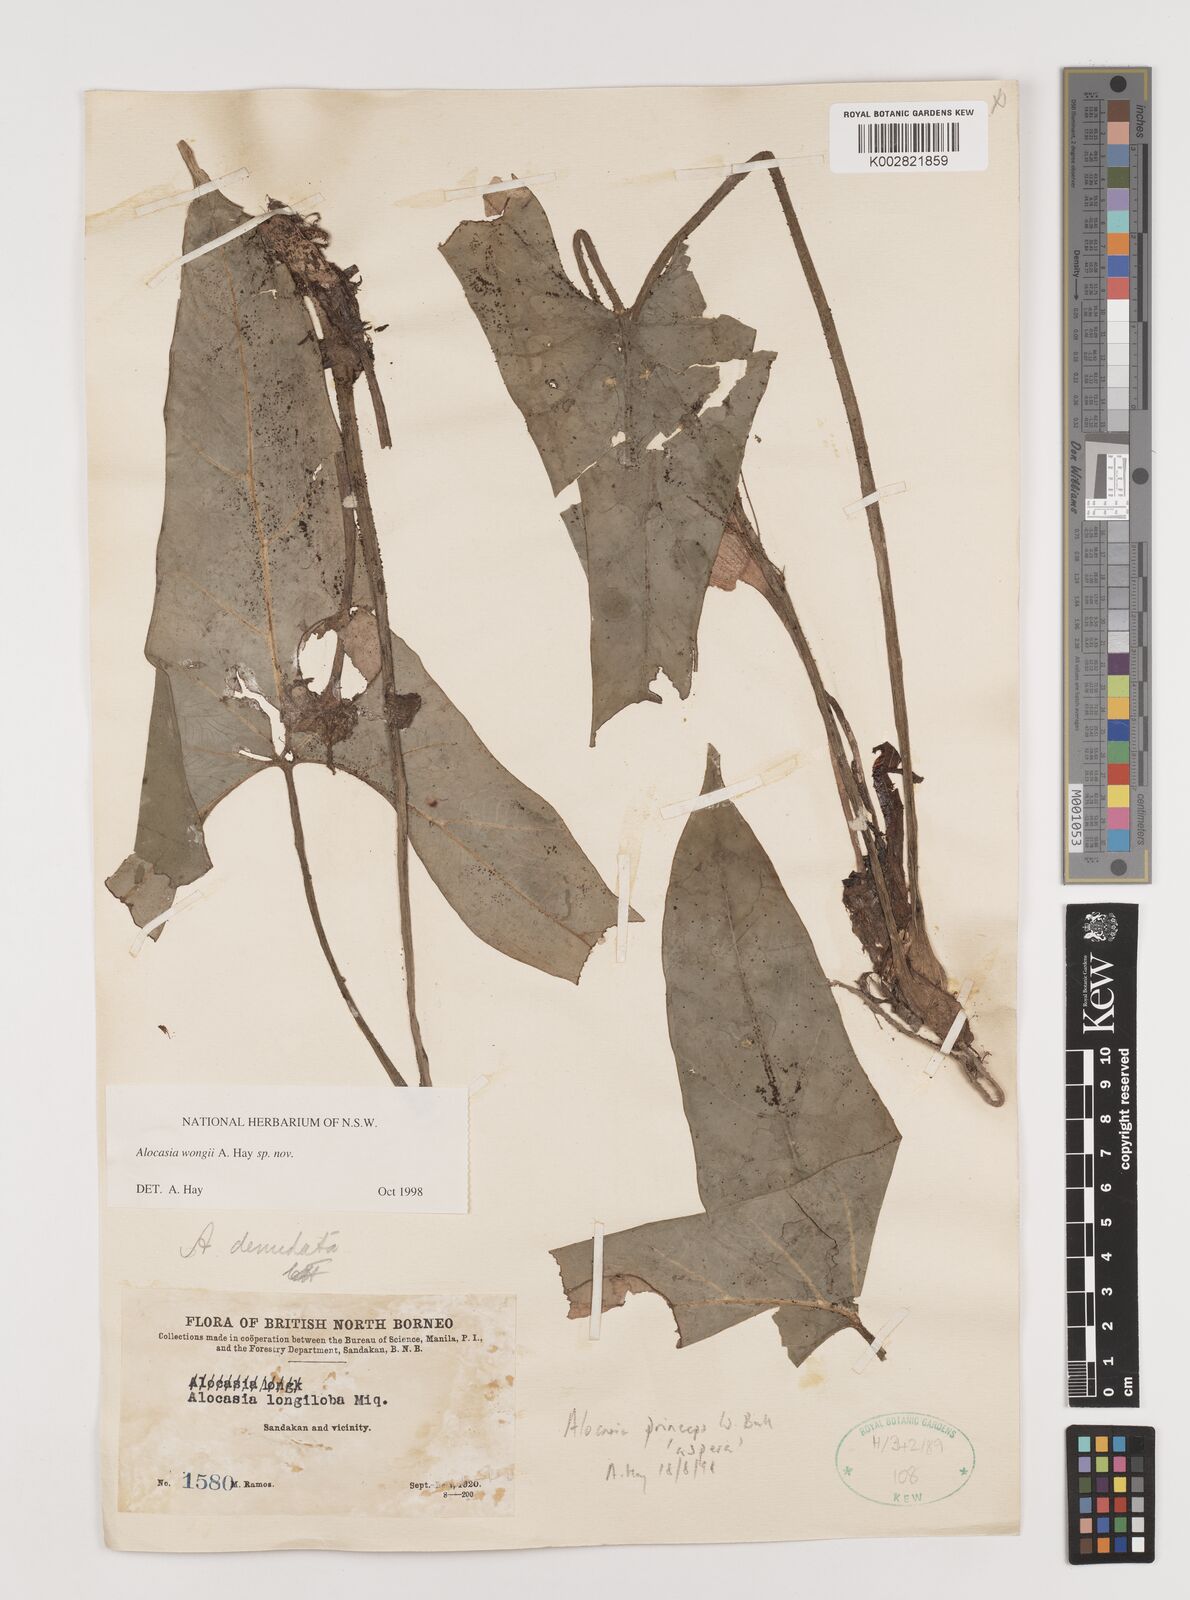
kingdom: Plantae
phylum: Tracheophyta
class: Liliopsida
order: Alismatales
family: Araceae
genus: Alocasia
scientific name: Alocasia wongii
